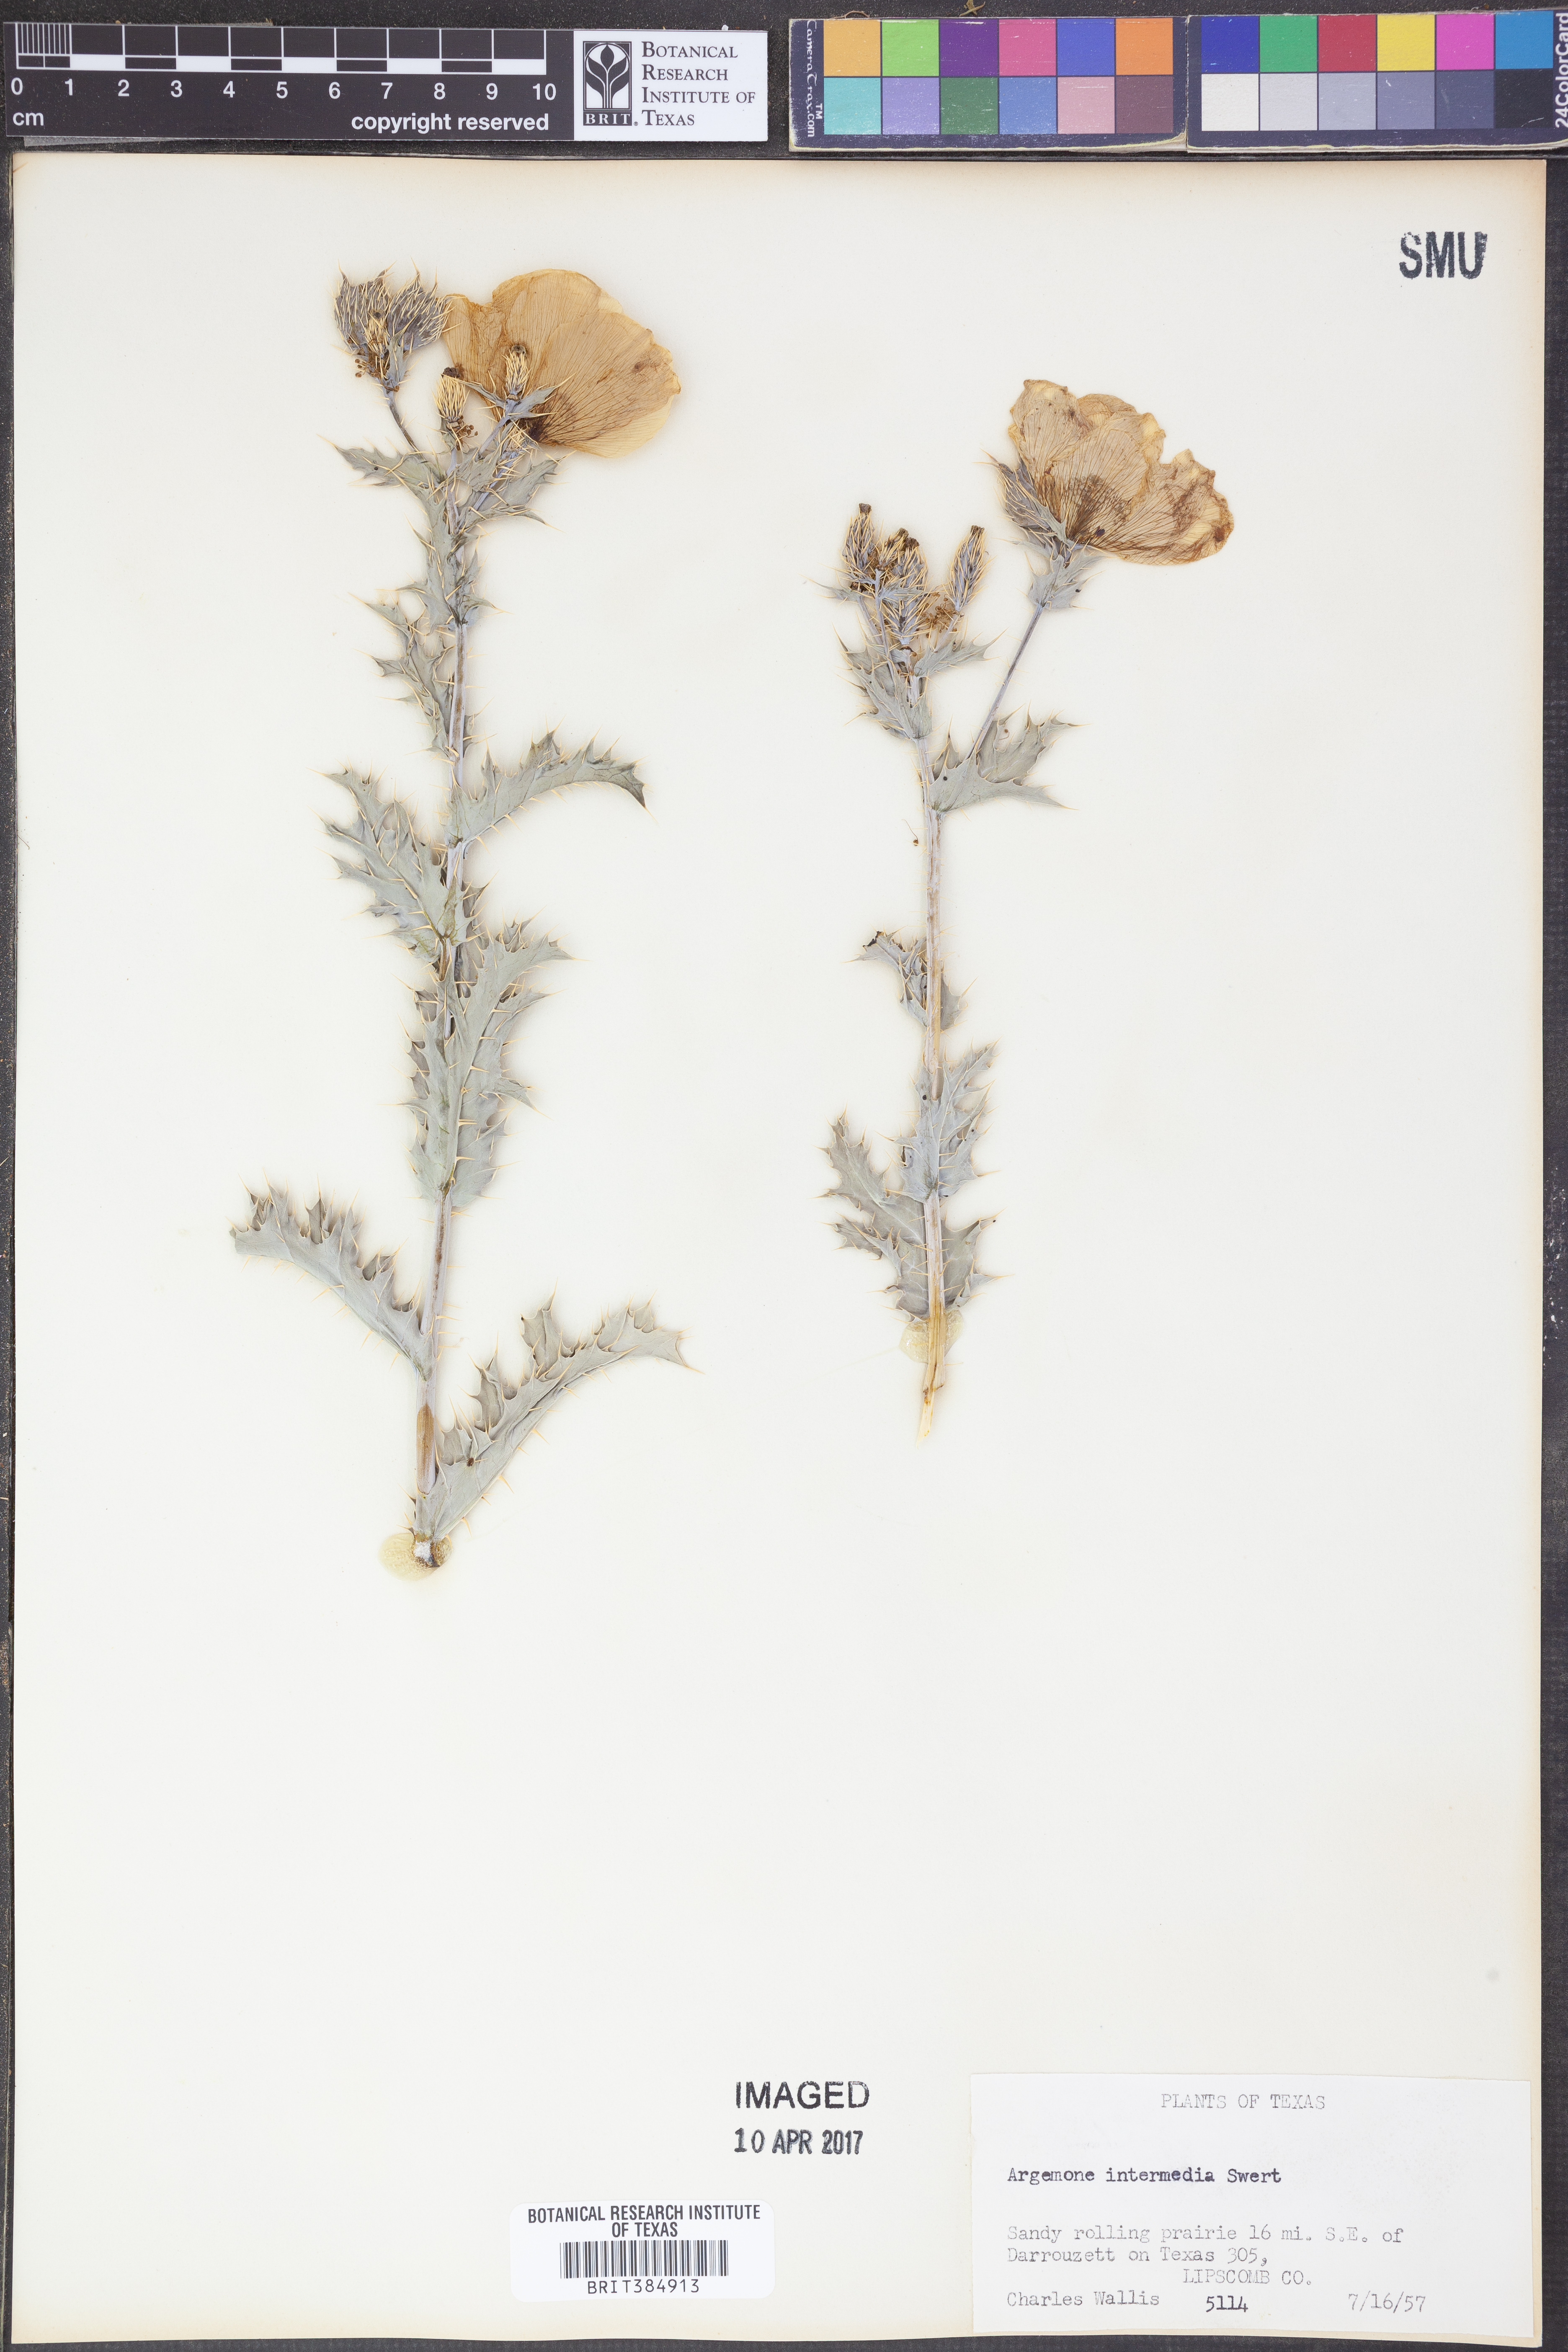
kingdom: Plantae
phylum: Tracheophyta
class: Magnoliopsida
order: Ranunculales
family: Papaveraceae
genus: Argemone
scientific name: Argemone intermedia
